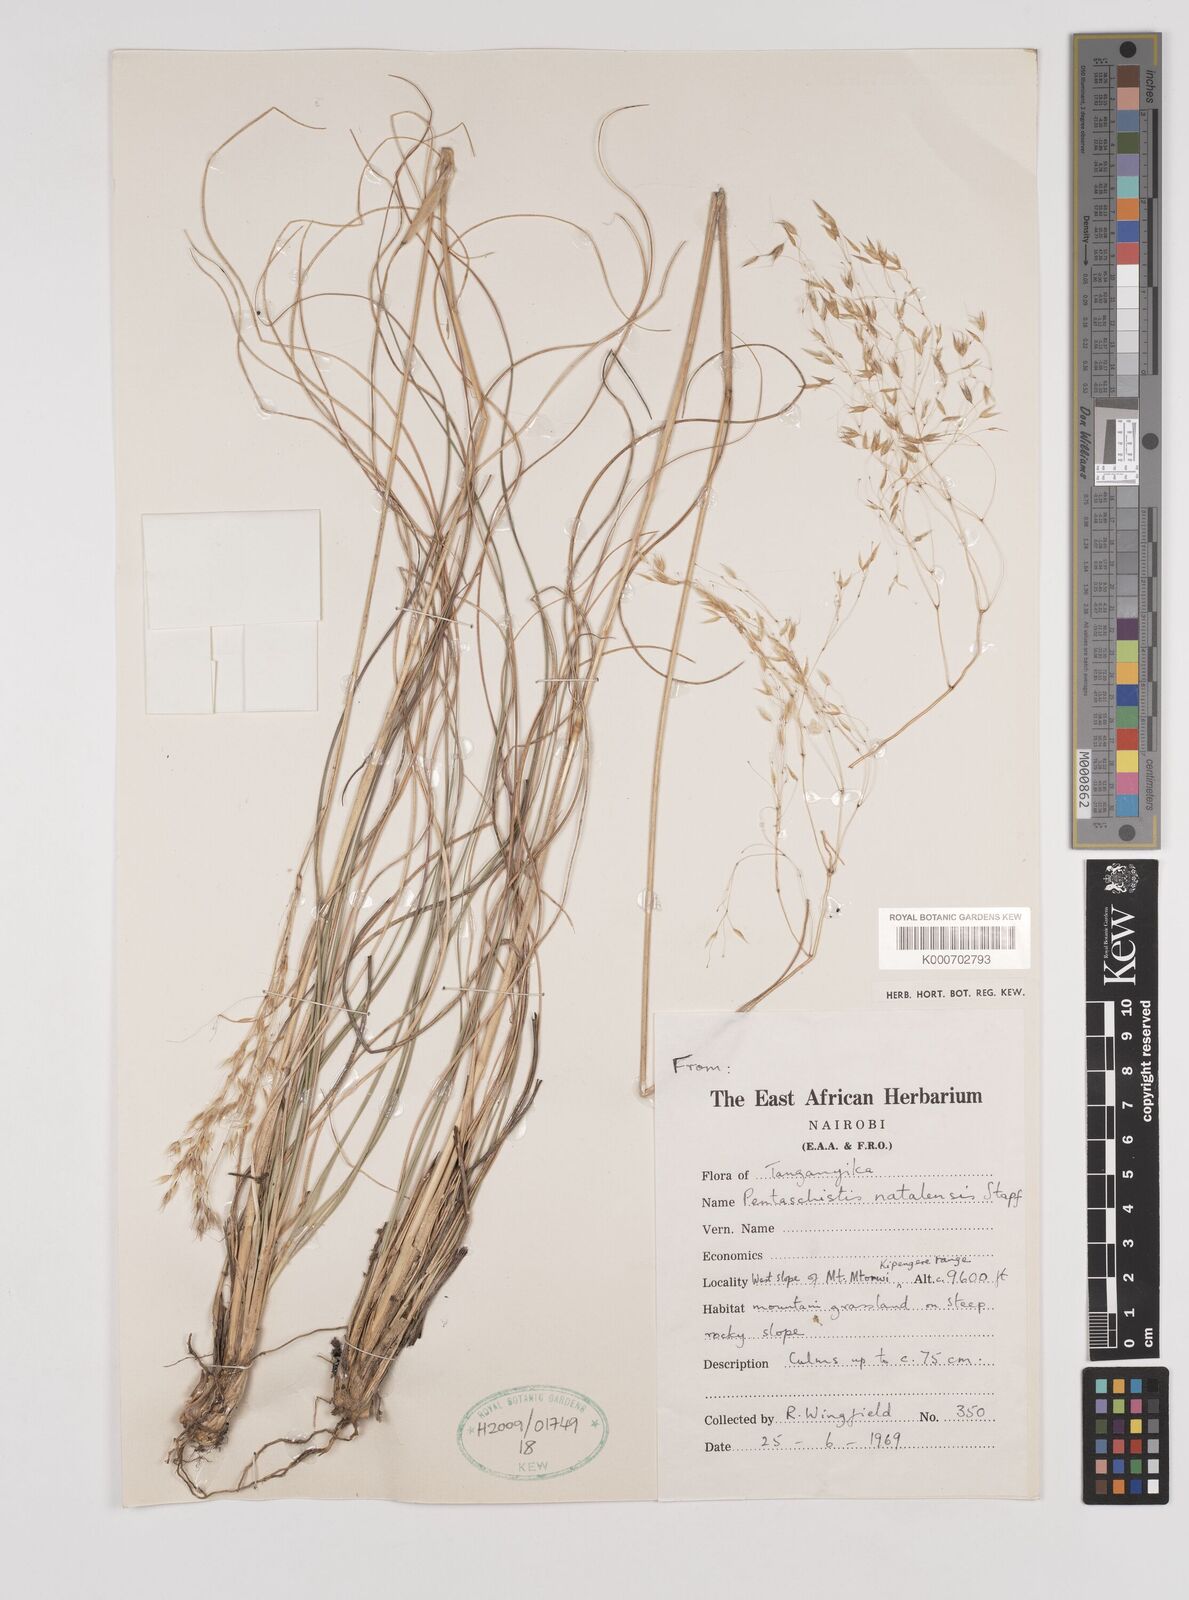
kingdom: Plantae
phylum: Tracheophyta
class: Liliopsida
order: Poales
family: Poaceae
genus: Pentameris
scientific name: Pentameris natalensis
